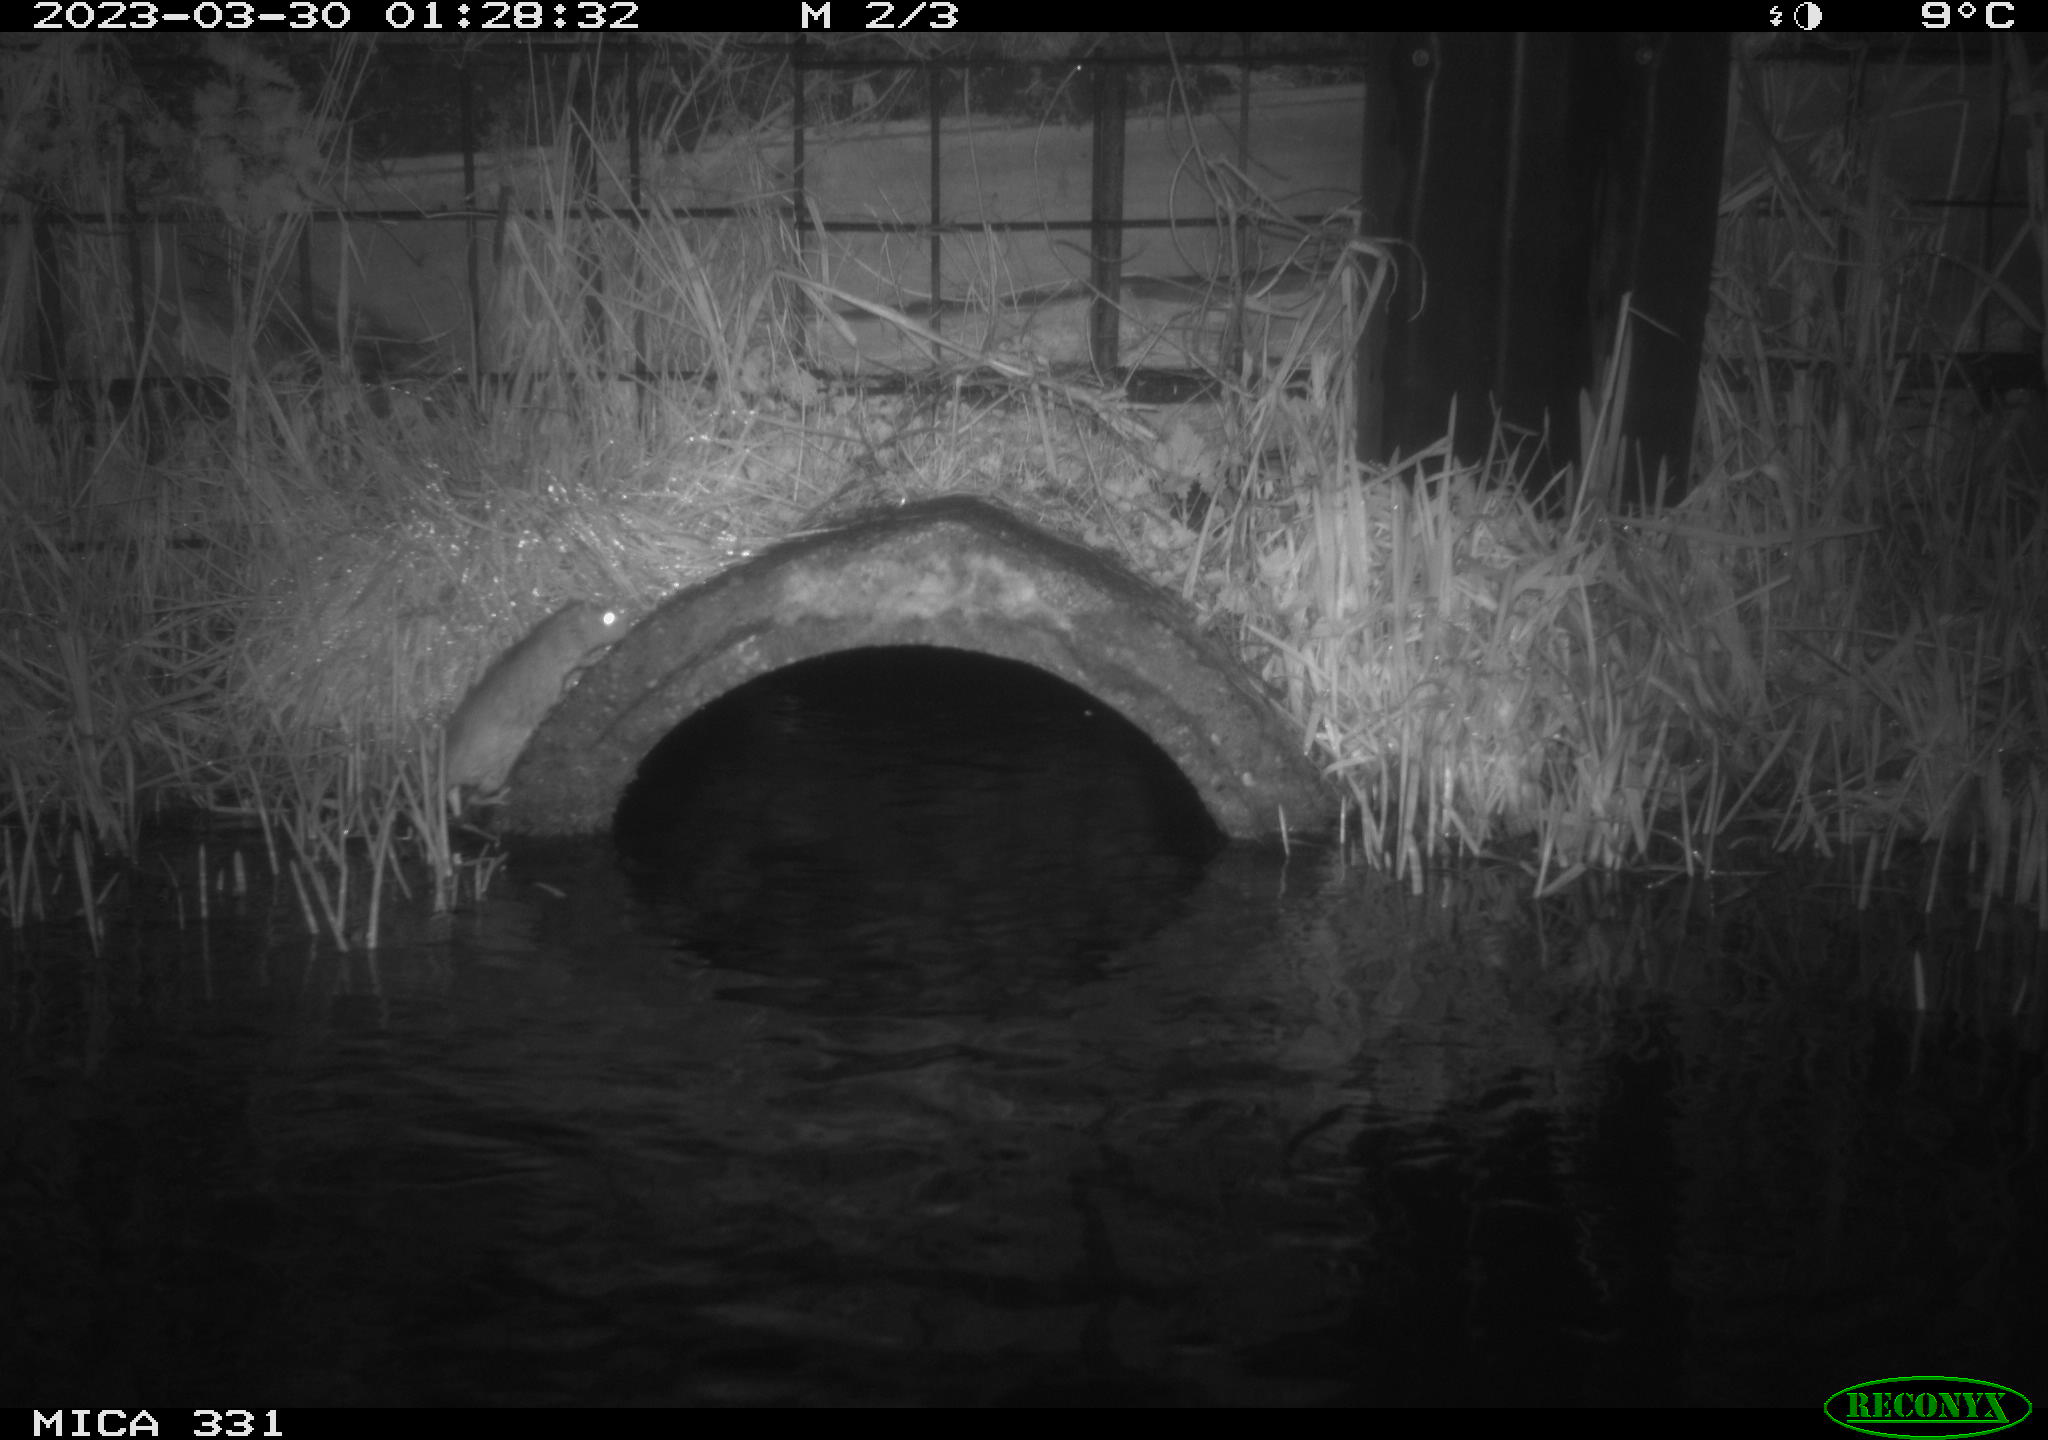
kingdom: Animalia
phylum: Chordata
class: Mammalia
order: Rodentia
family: Muridae
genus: Rattus
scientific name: Rattus norvegicus
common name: Brown rat
